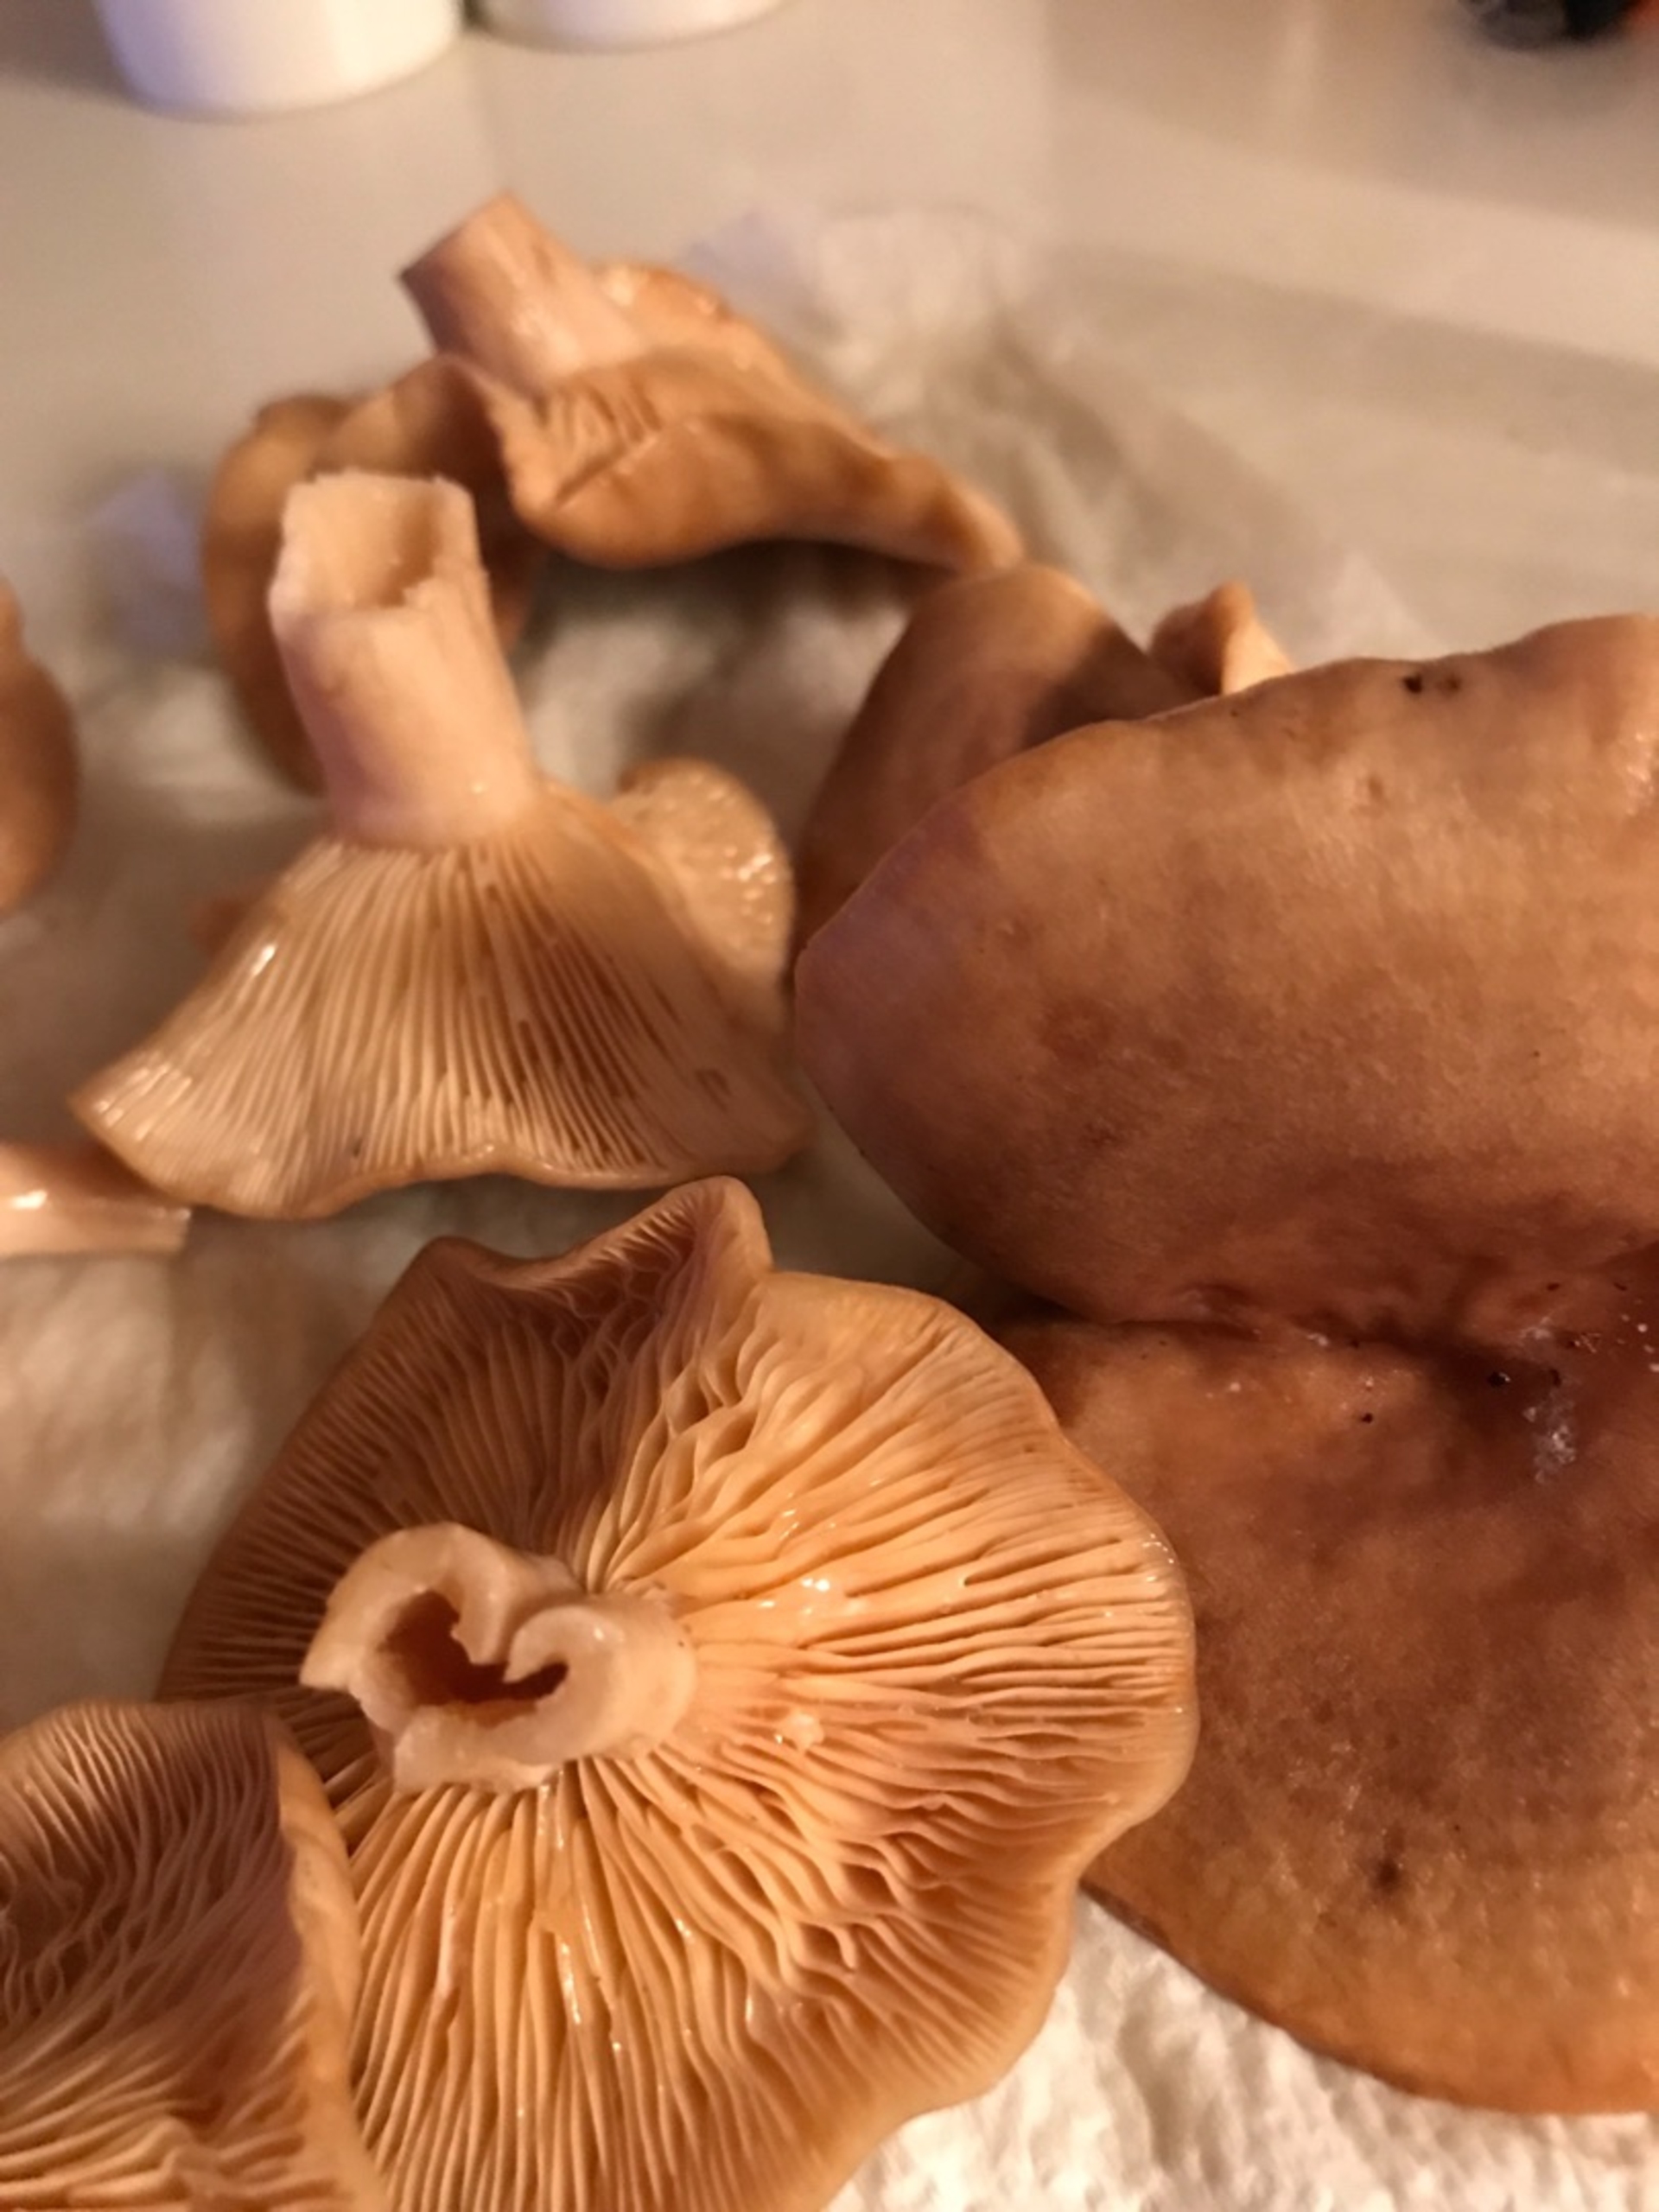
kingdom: Fungi
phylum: Basidiomycota
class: Agaricomycetes
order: Russulales
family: Russulaceae
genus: Lactarius
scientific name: Lactarius
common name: Mælkehat
